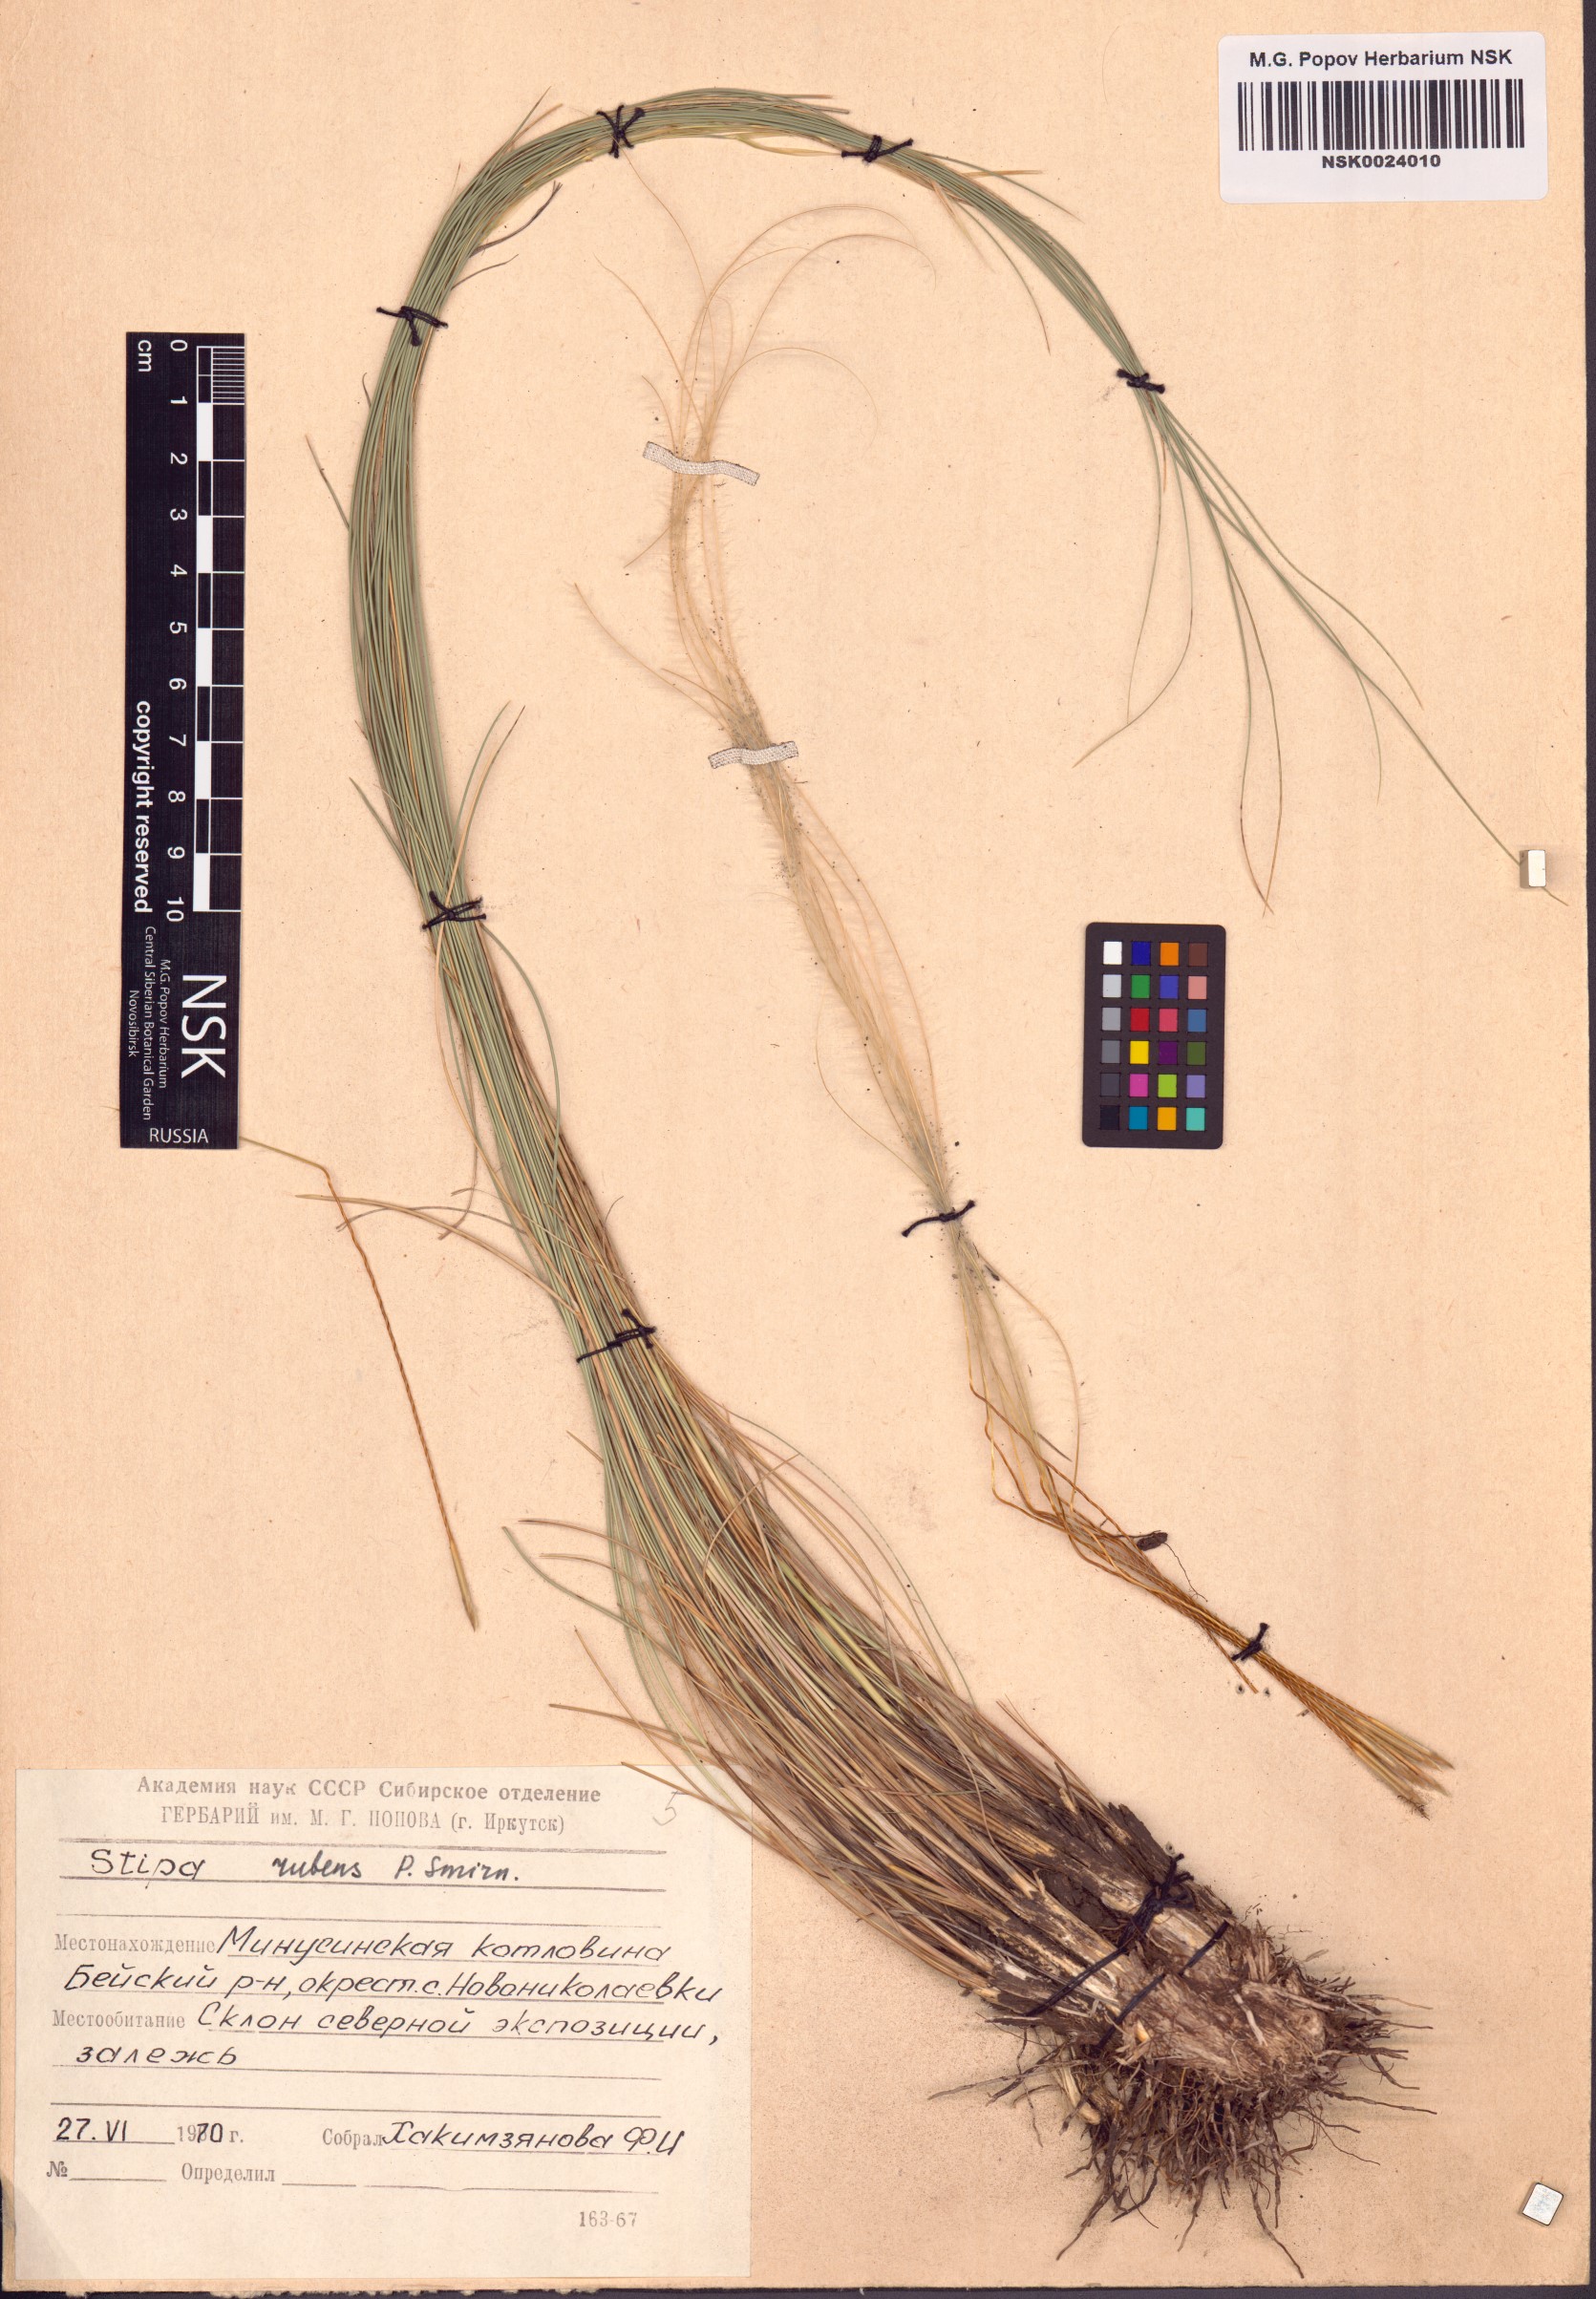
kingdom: Plantae
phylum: Tracheophyta
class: Liliopsida
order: Poales
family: Poaceae
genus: Stipa
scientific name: Stipa zalesskii
